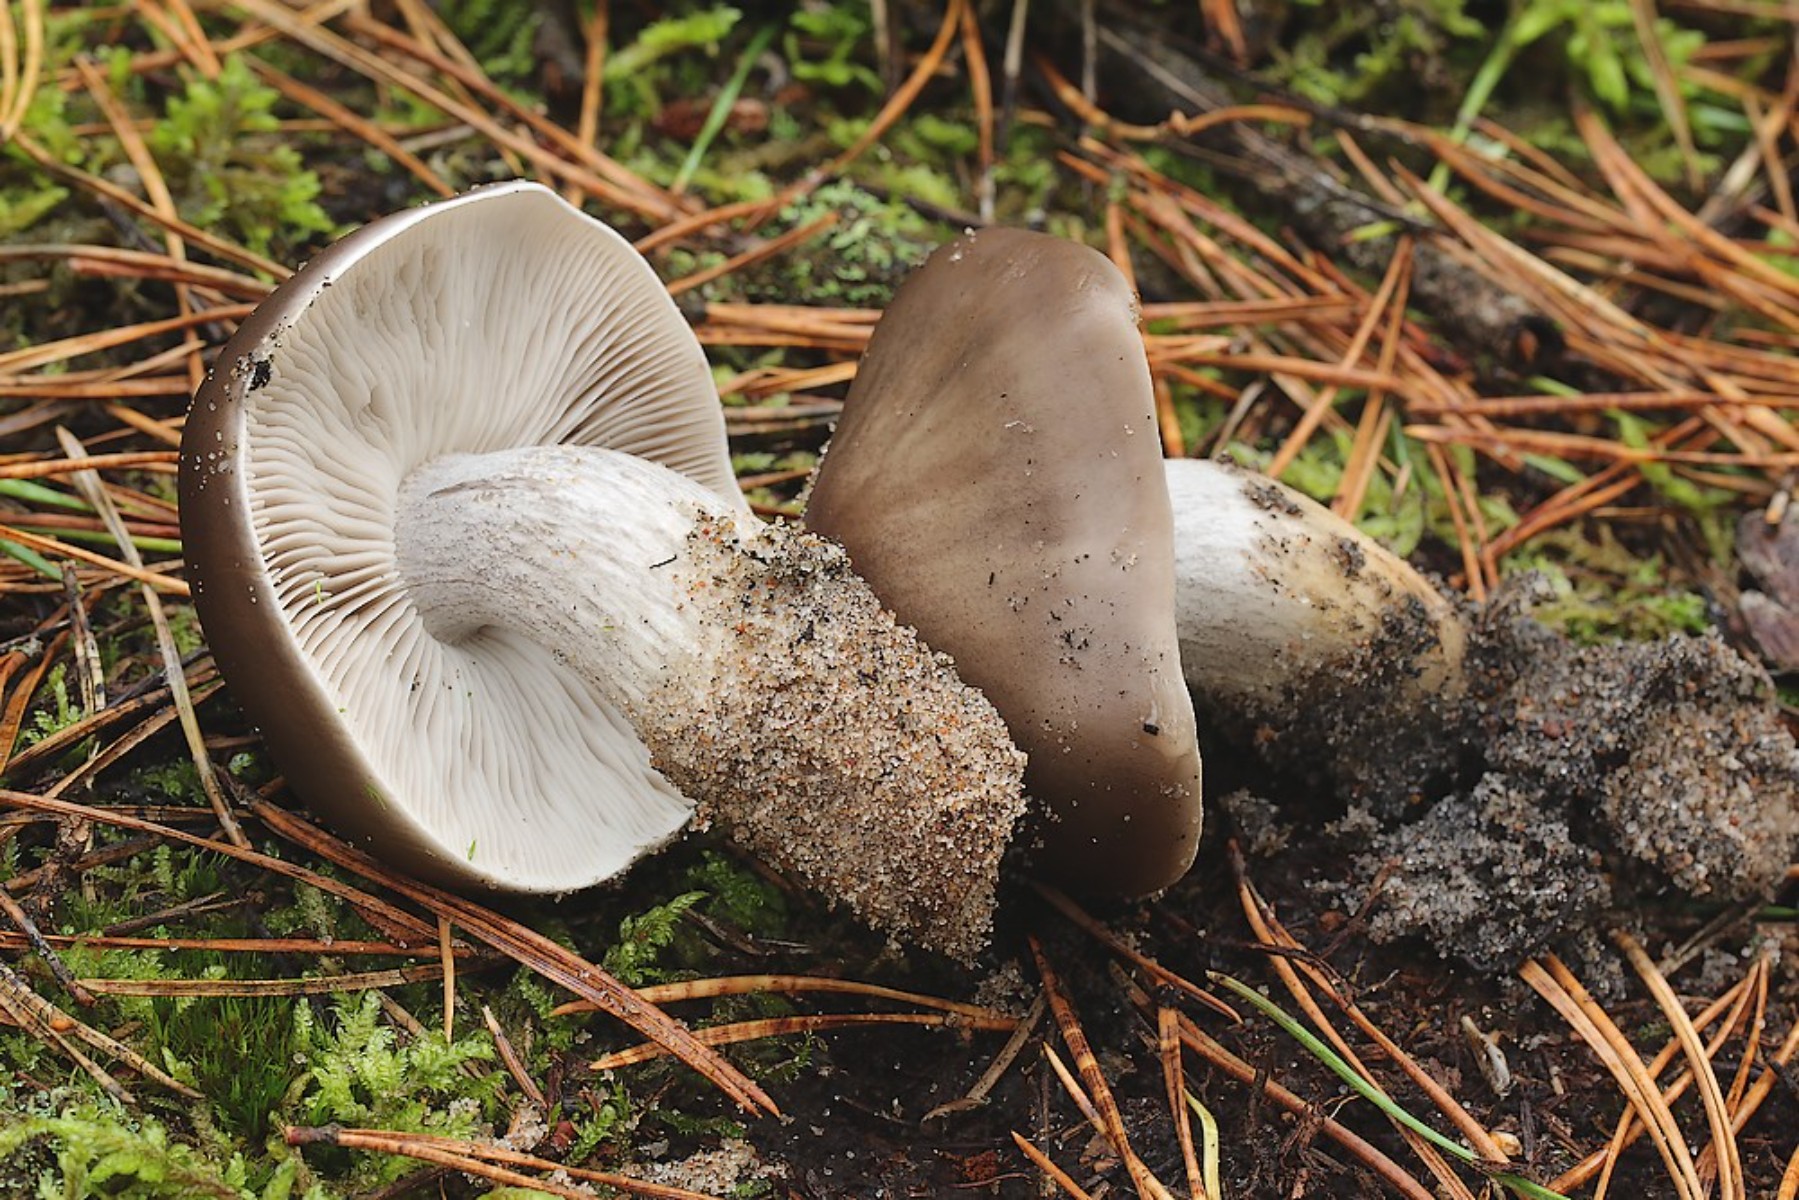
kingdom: Fungi
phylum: Basidiomycota
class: Agaricomycetes
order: Agaricales
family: Tricholomataceae
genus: Tricholoma
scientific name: Tricholoma sudum
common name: tør ridderhat
